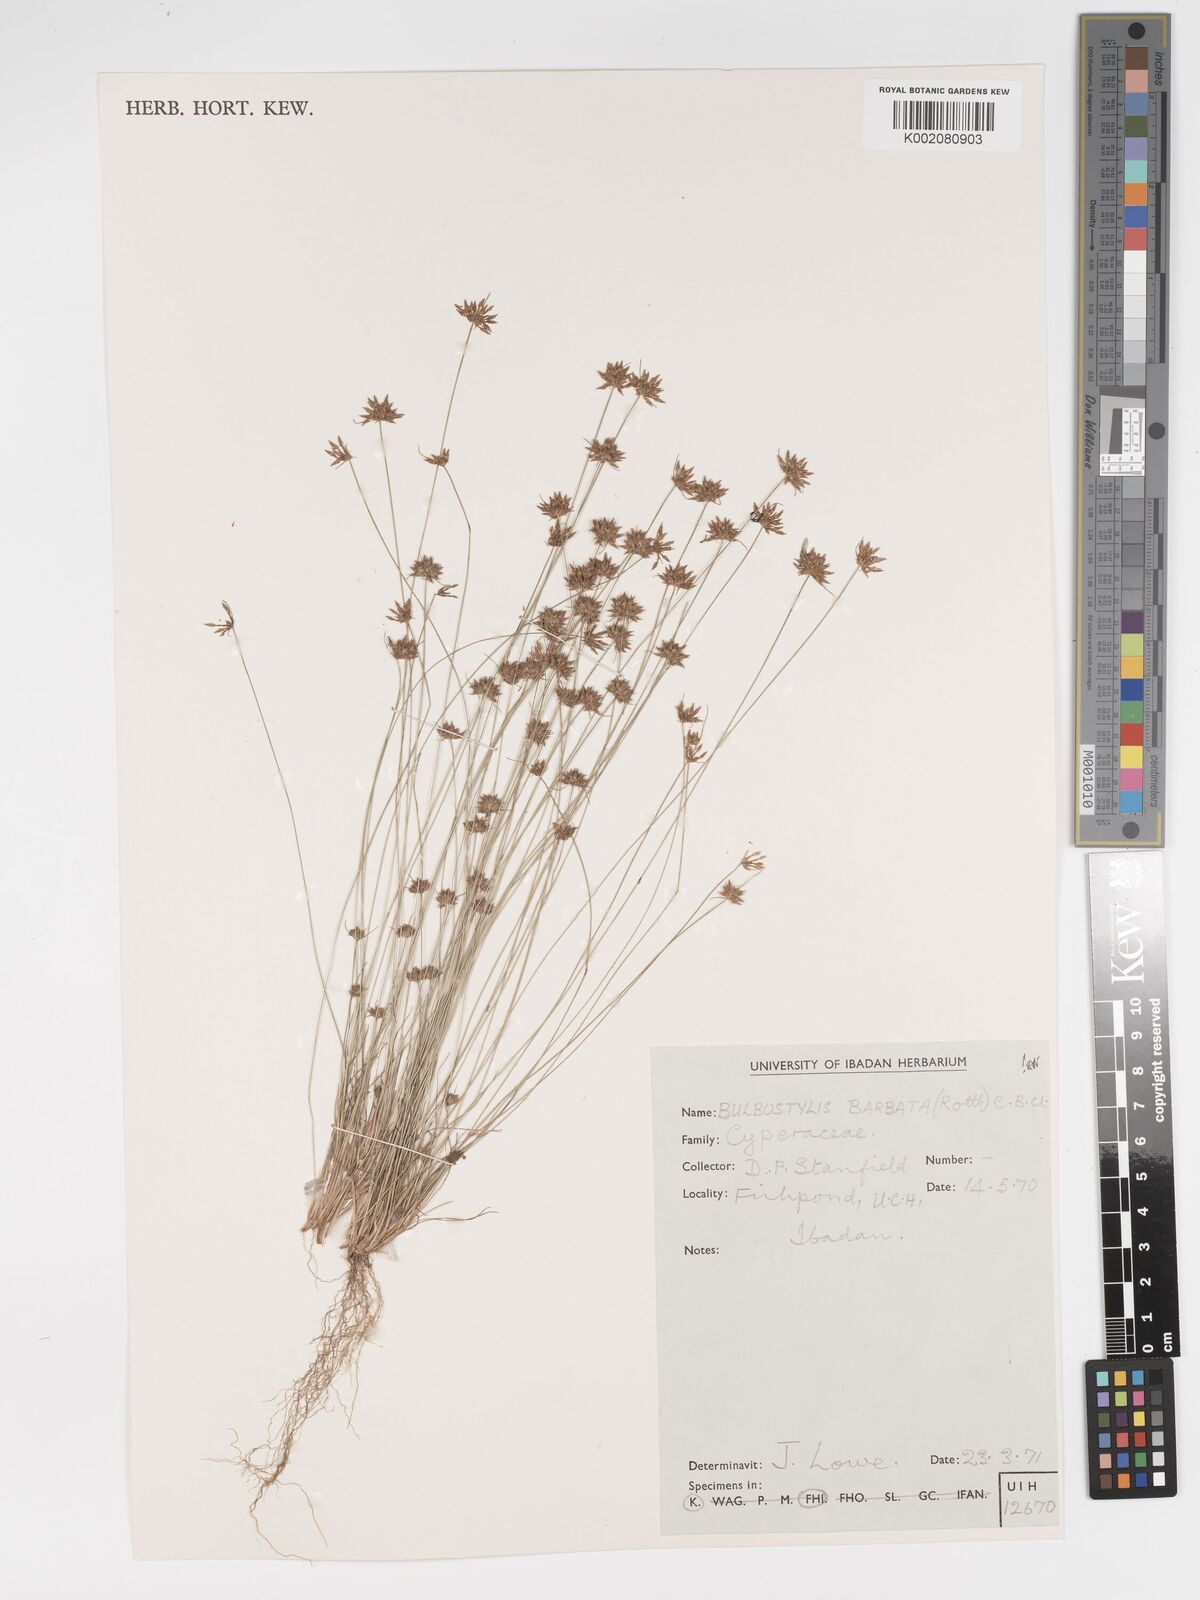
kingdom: Plantae
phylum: Tracheophyta
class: Liliopsida
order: Poales
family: Cyperaceae
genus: Bulbostylis
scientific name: Bulbostylis barbata
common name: Watergrass
